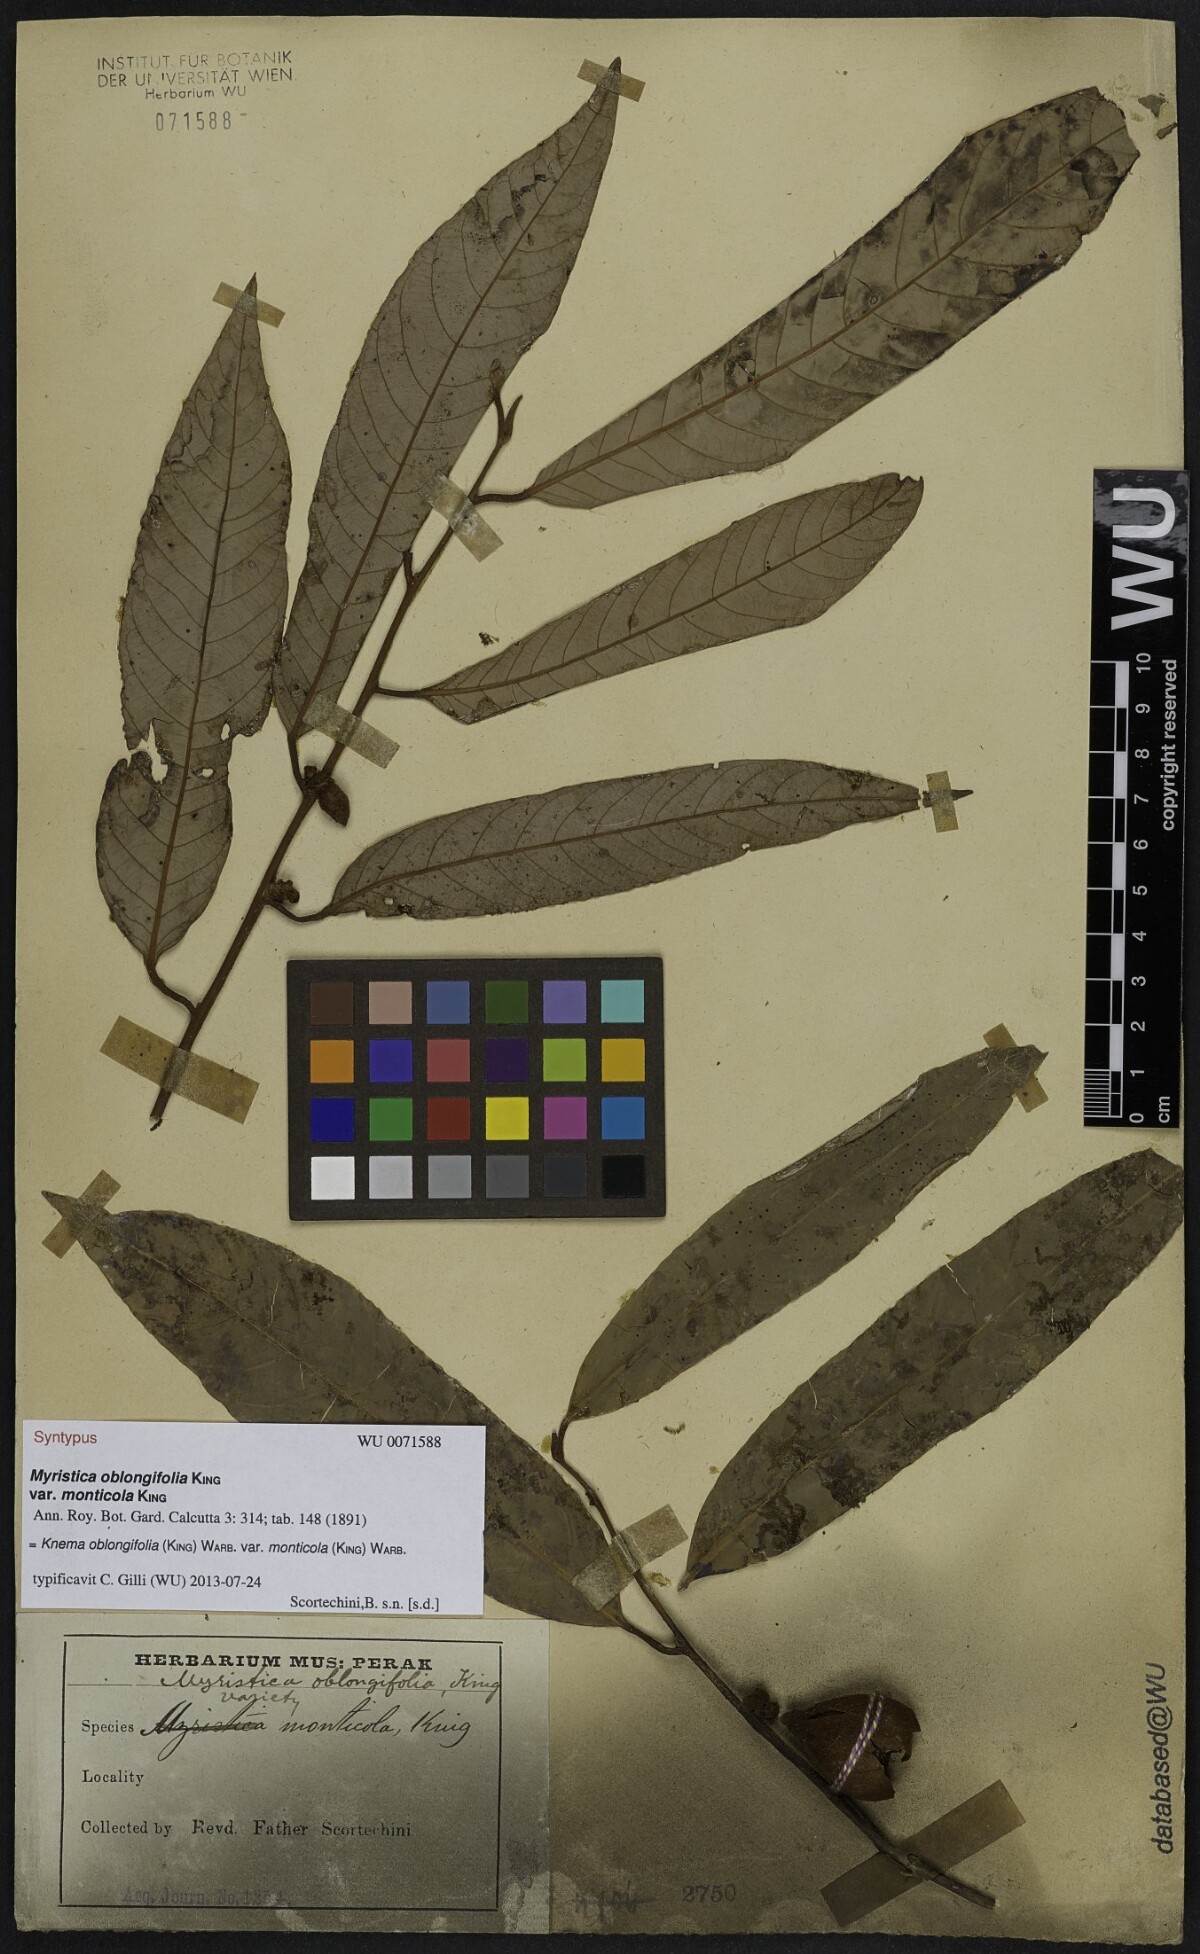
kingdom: Plantae
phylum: Tracheophyta
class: Magnoliopsida
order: Magnoliales
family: Myristicaceae
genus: Knema
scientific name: Knema oblongifolia
